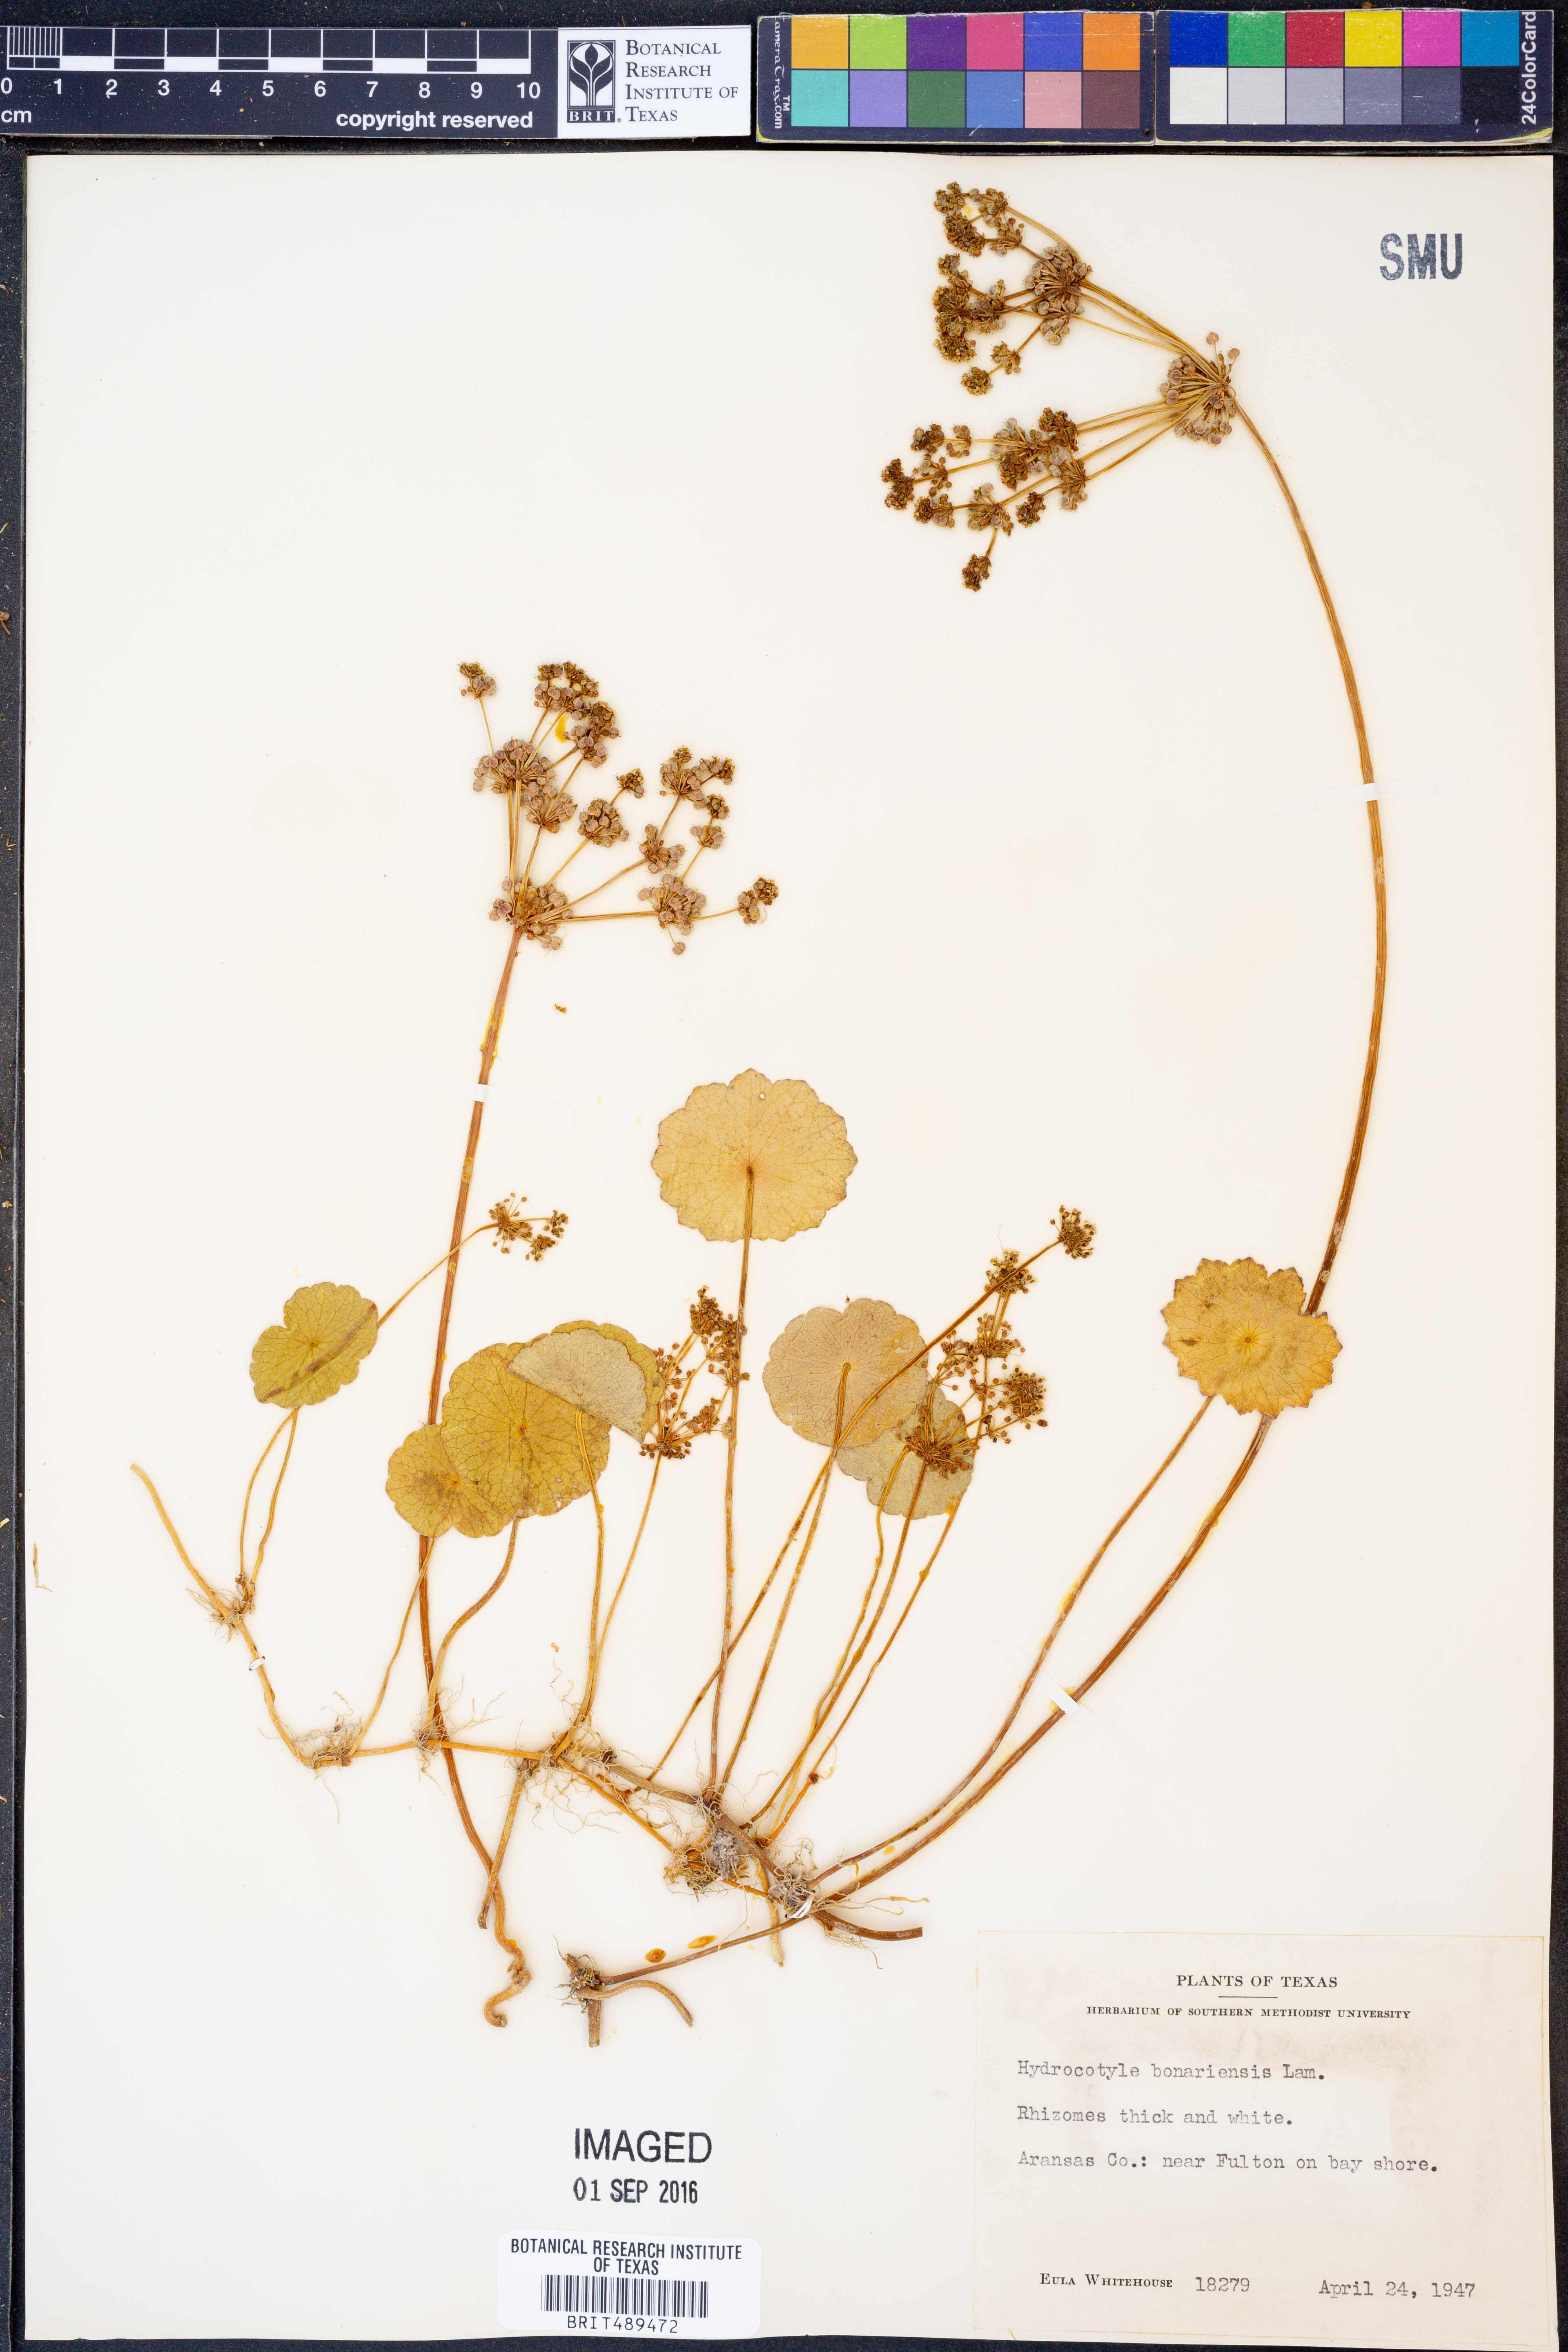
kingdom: Plantae
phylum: Tracheophyta
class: Magnoliopsida
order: Apiales
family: Araliaceae
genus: Hydrocotyle
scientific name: Hydrocotyle bonariensis
